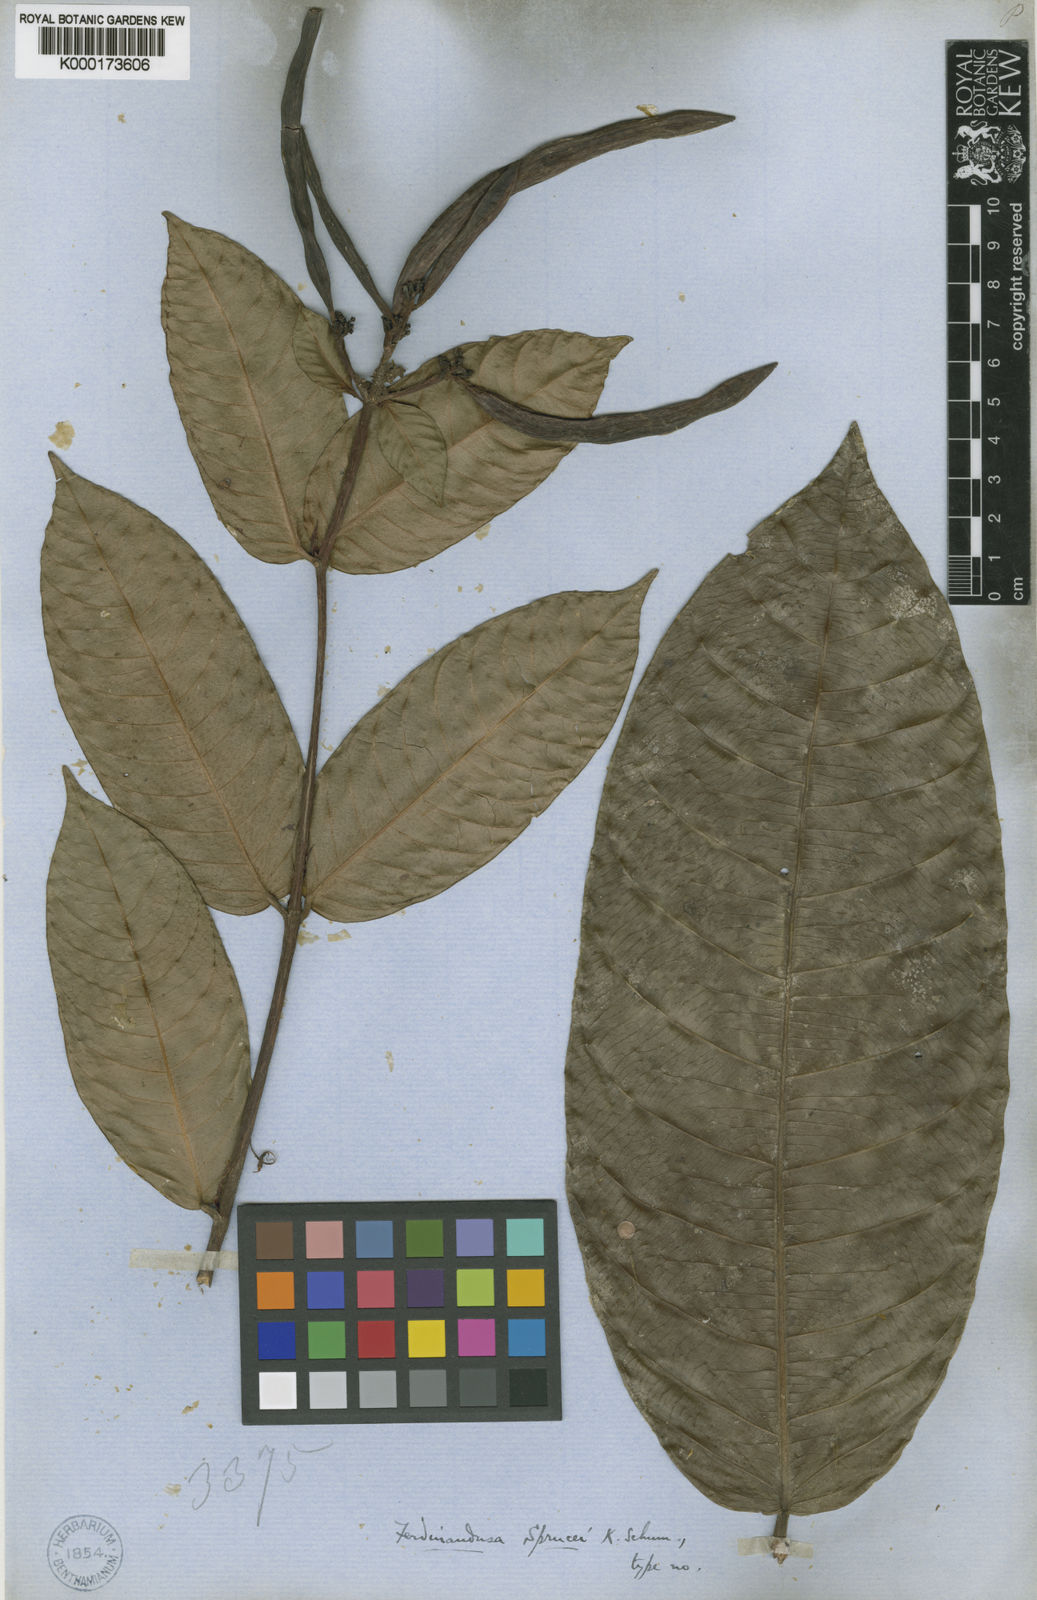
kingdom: Plantae
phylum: Tracheophyta
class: Magnoliopsida
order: Gentianales
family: Rubiaceae
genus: Ferdinandusa
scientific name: Ferdinandusa sprucei
